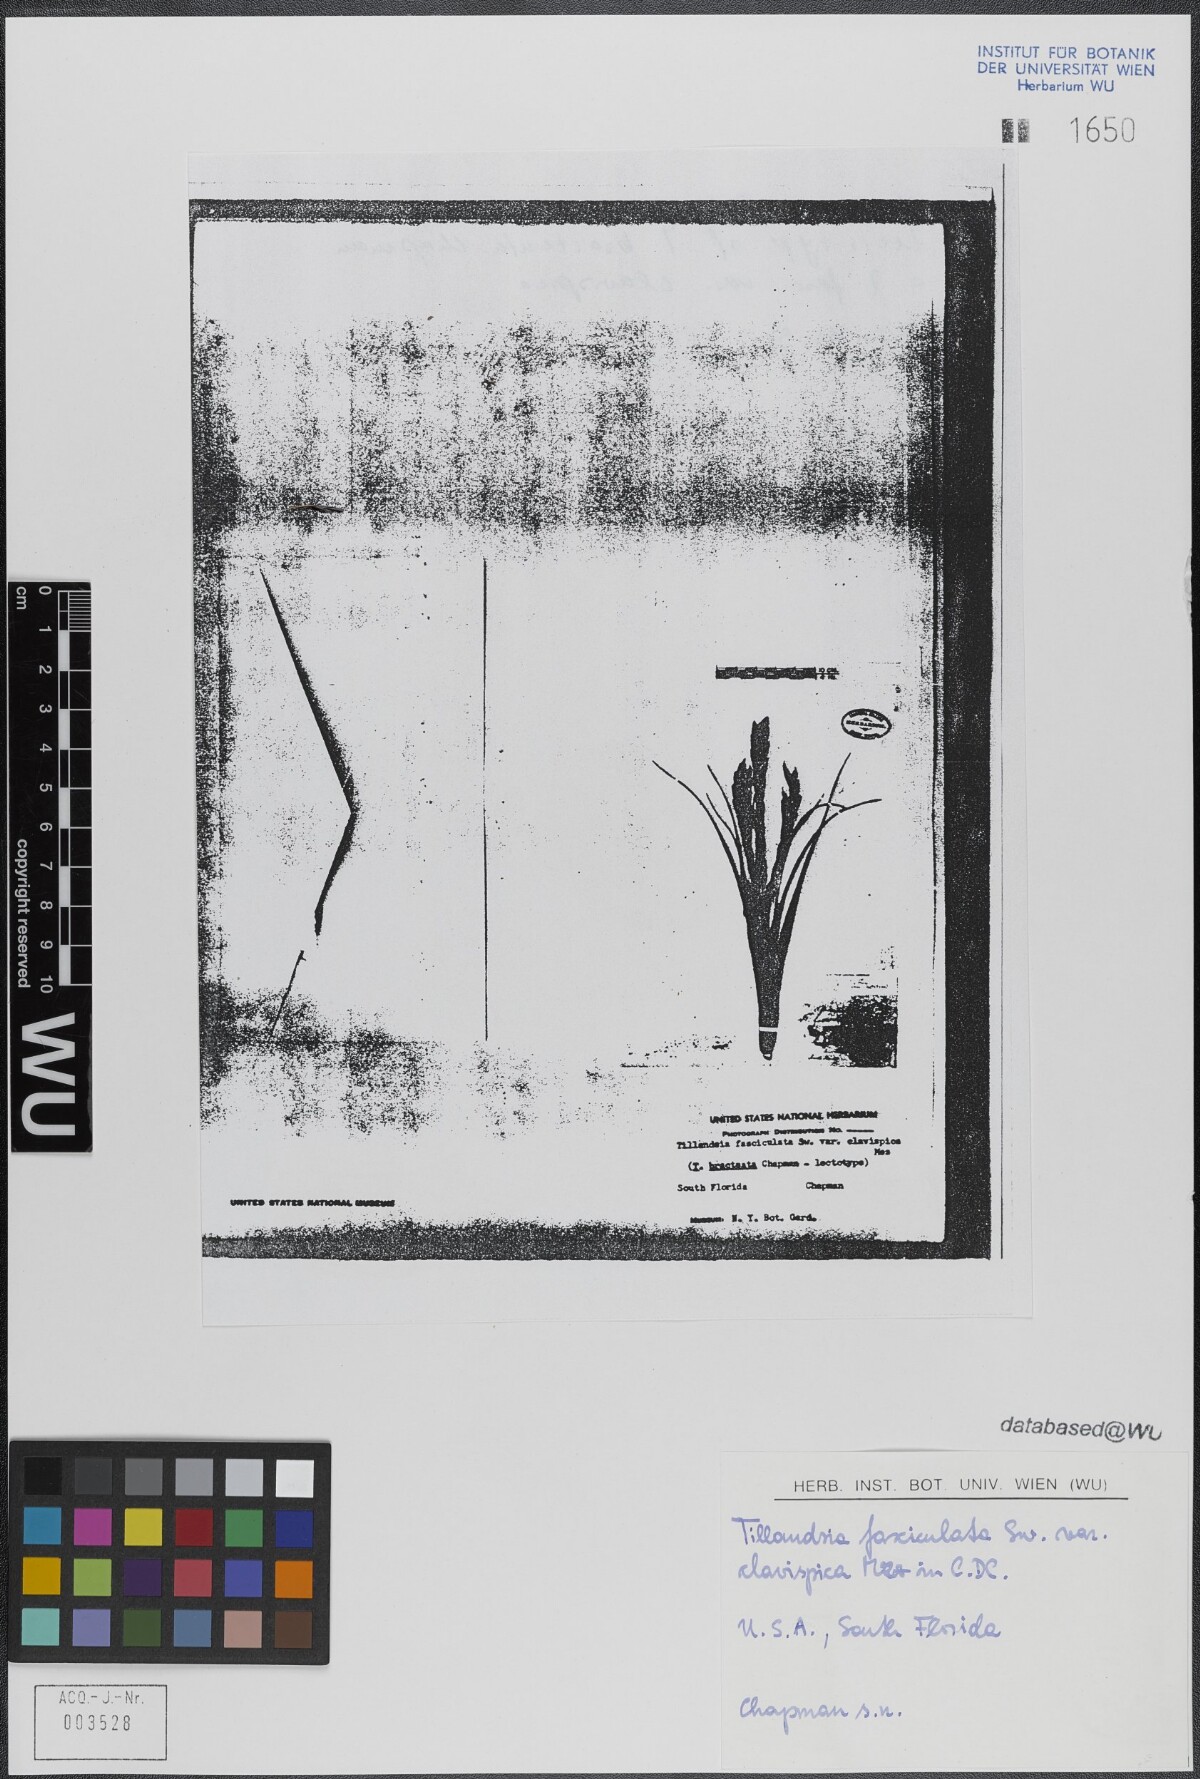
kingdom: Plantae
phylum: Tracheophyta
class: Liliopsida
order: Poales
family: Bromeliaceae
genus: Tillandsia
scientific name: Tillandsia fasciculata
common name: Giant airplant
